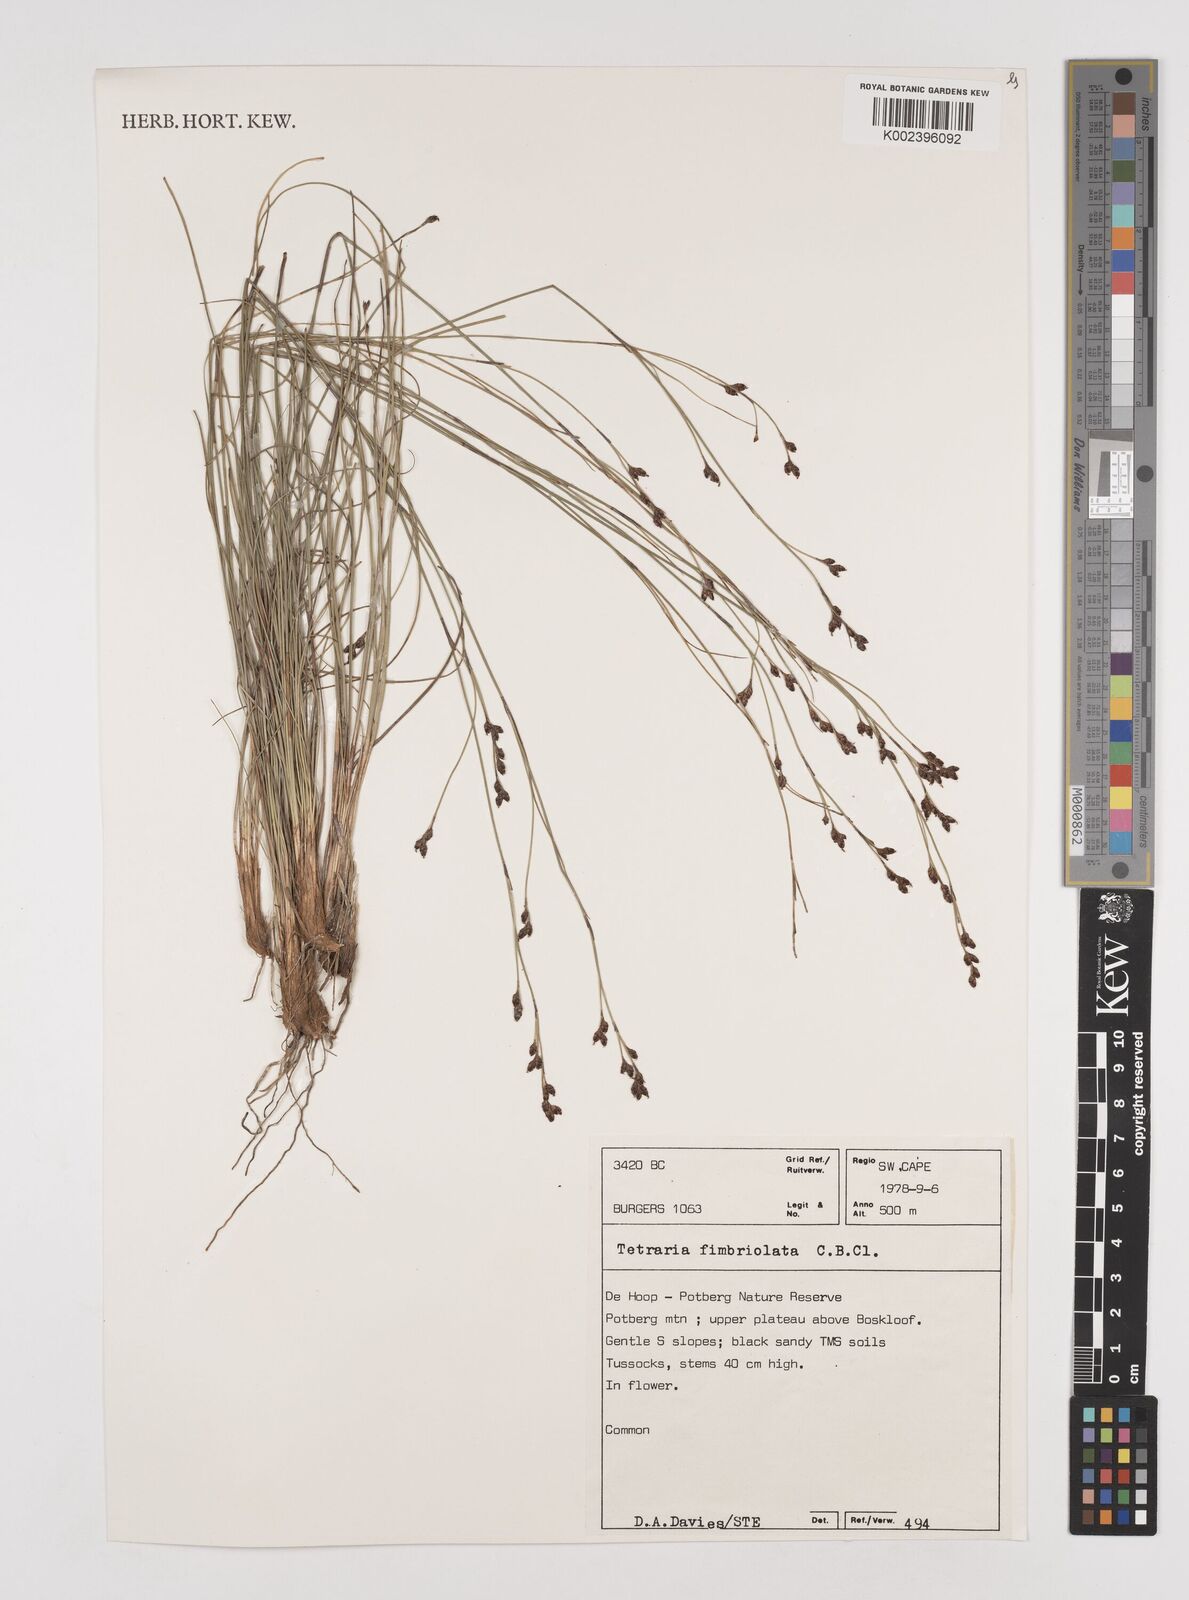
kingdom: Plantae
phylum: Tracheophyta
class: Liliopsida
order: Poales
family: Cyperaceae
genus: Tetraria
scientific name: Tetraria fimbriolata
